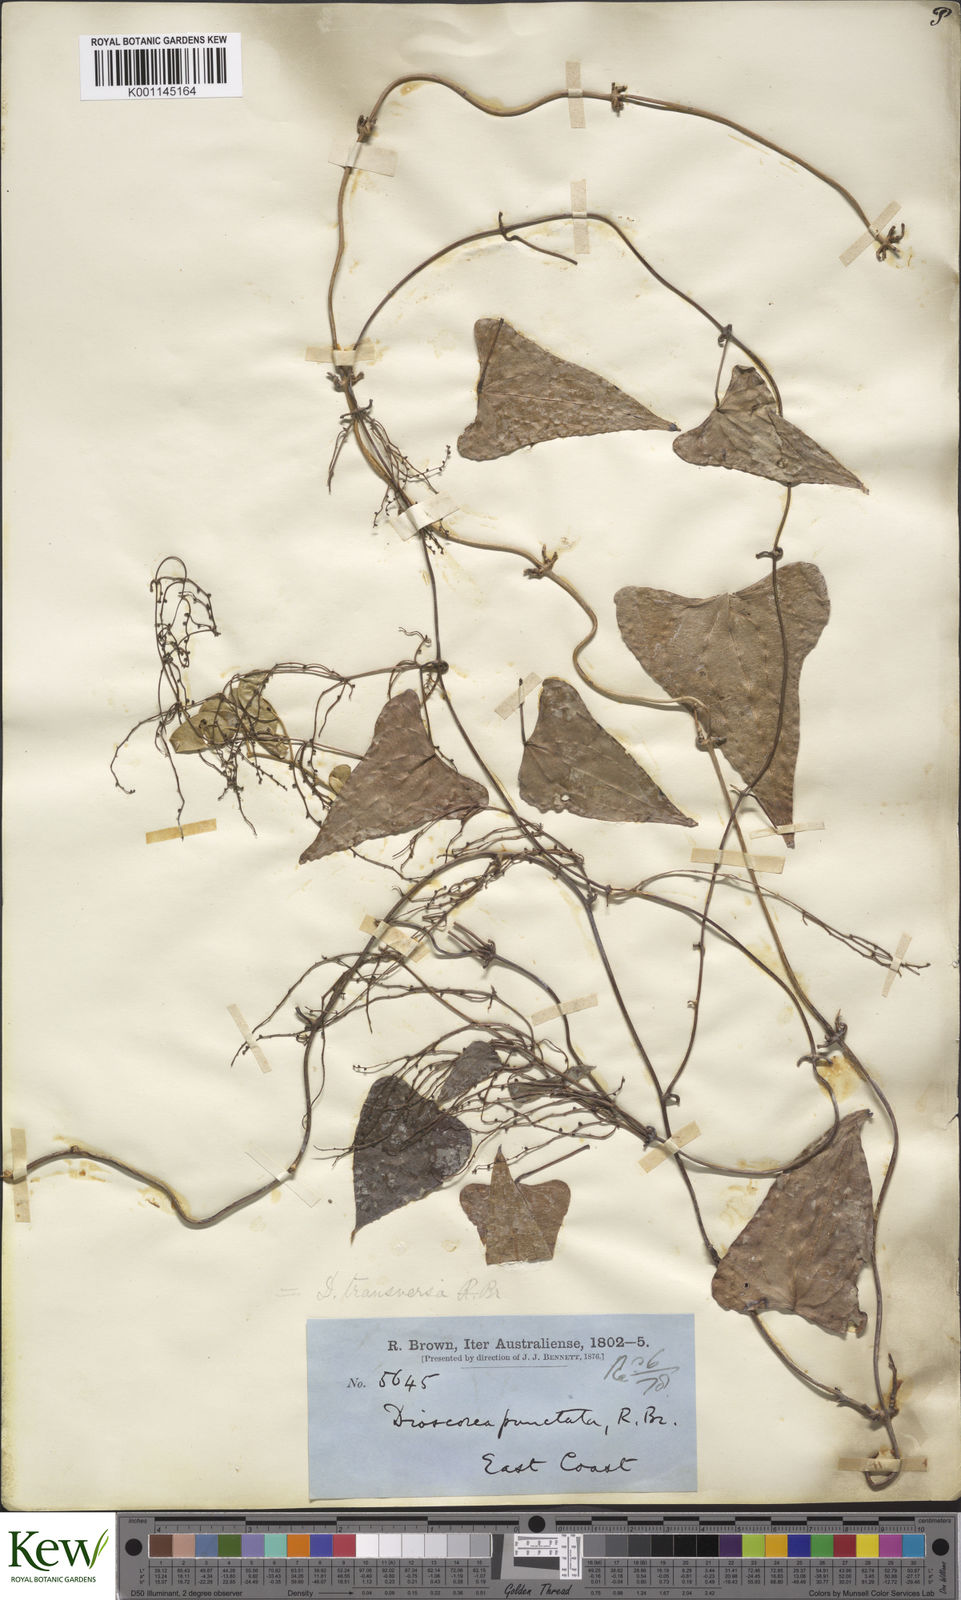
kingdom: Plantae
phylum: Tracheophyta
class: Liliopsida
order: Dioscoreales
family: Dioscoreaceae
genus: Dioscorea
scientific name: Dioscorea transversa
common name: Long yam
